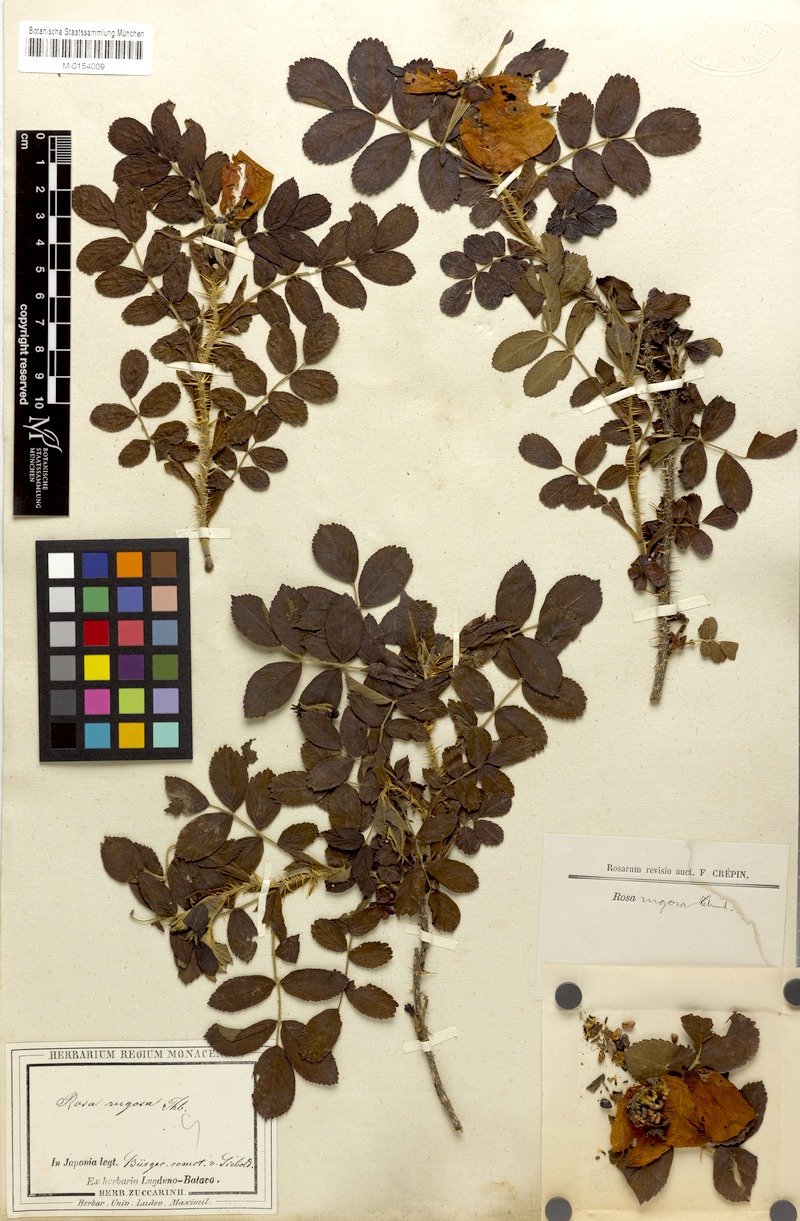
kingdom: Plantae
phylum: Tracheophyta
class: Magnoliopsida
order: Rosales
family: Rosaceae
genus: Rosa
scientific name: Rosa rugosa
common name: Japanese rose
